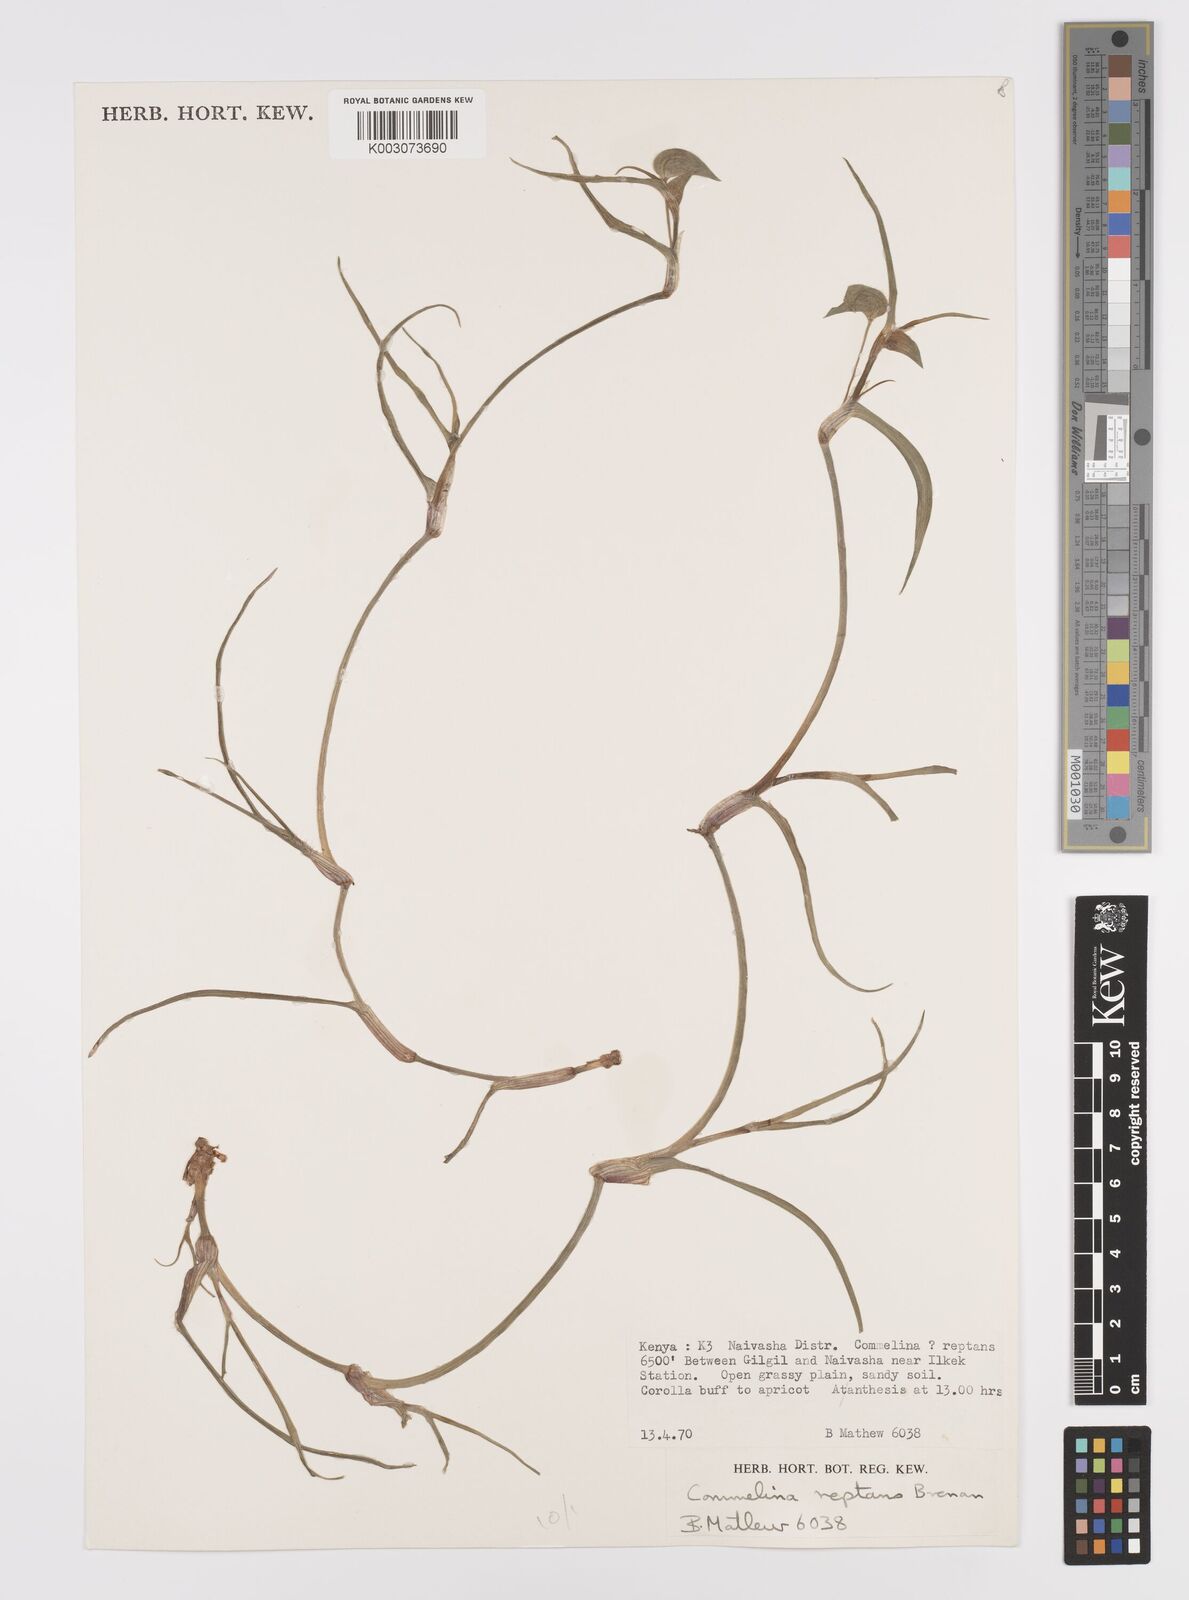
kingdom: Plantae
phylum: Tracheophyta
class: Liliopsida
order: Commelinales
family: Commelinaceae
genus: Commelina
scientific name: Commelina reptans
